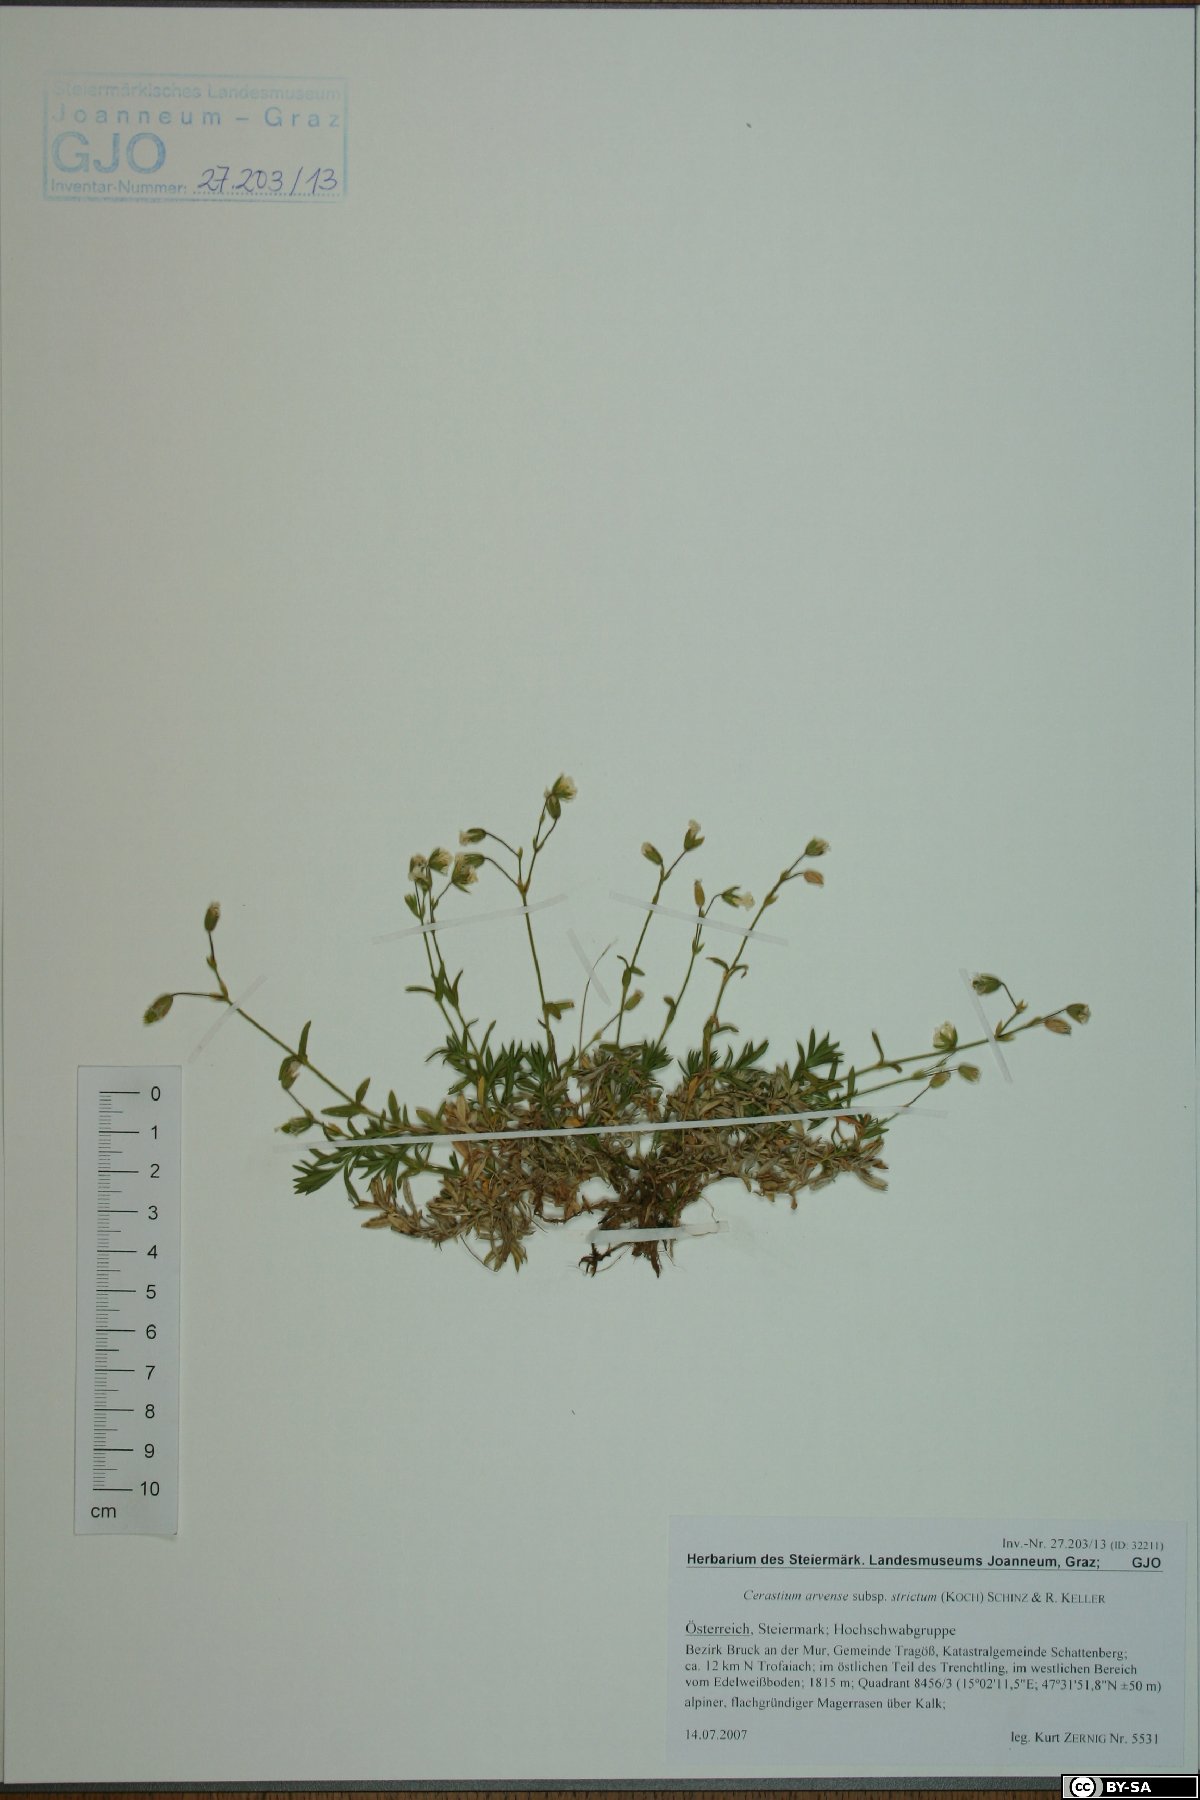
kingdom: Plantae
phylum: Tracheophyta
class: Magnoliopsida
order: Caryophyllales
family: Caryophyllaceae
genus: Cerastium
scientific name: Cerastium elongatum
